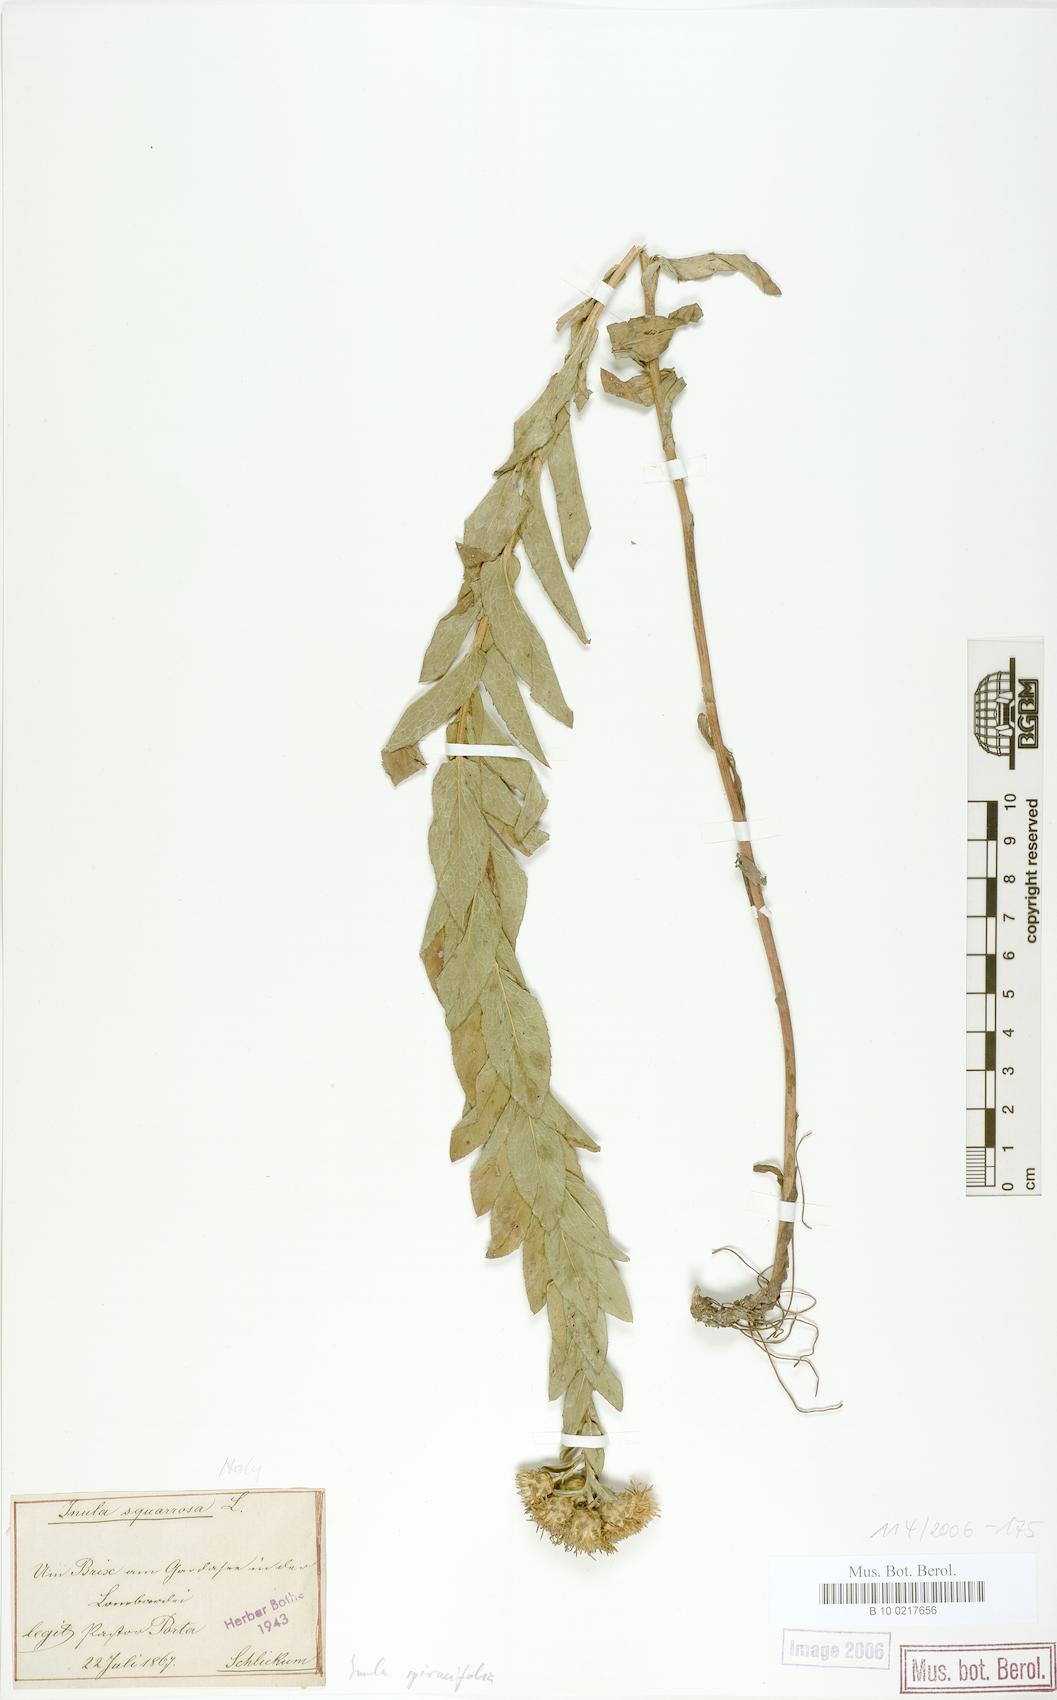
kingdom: Plantae
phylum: Tracheophyta
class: Magnoliopsida
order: Asterales
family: Asteraceae
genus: Pentanema
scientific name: Pentanema spiraeifolium
